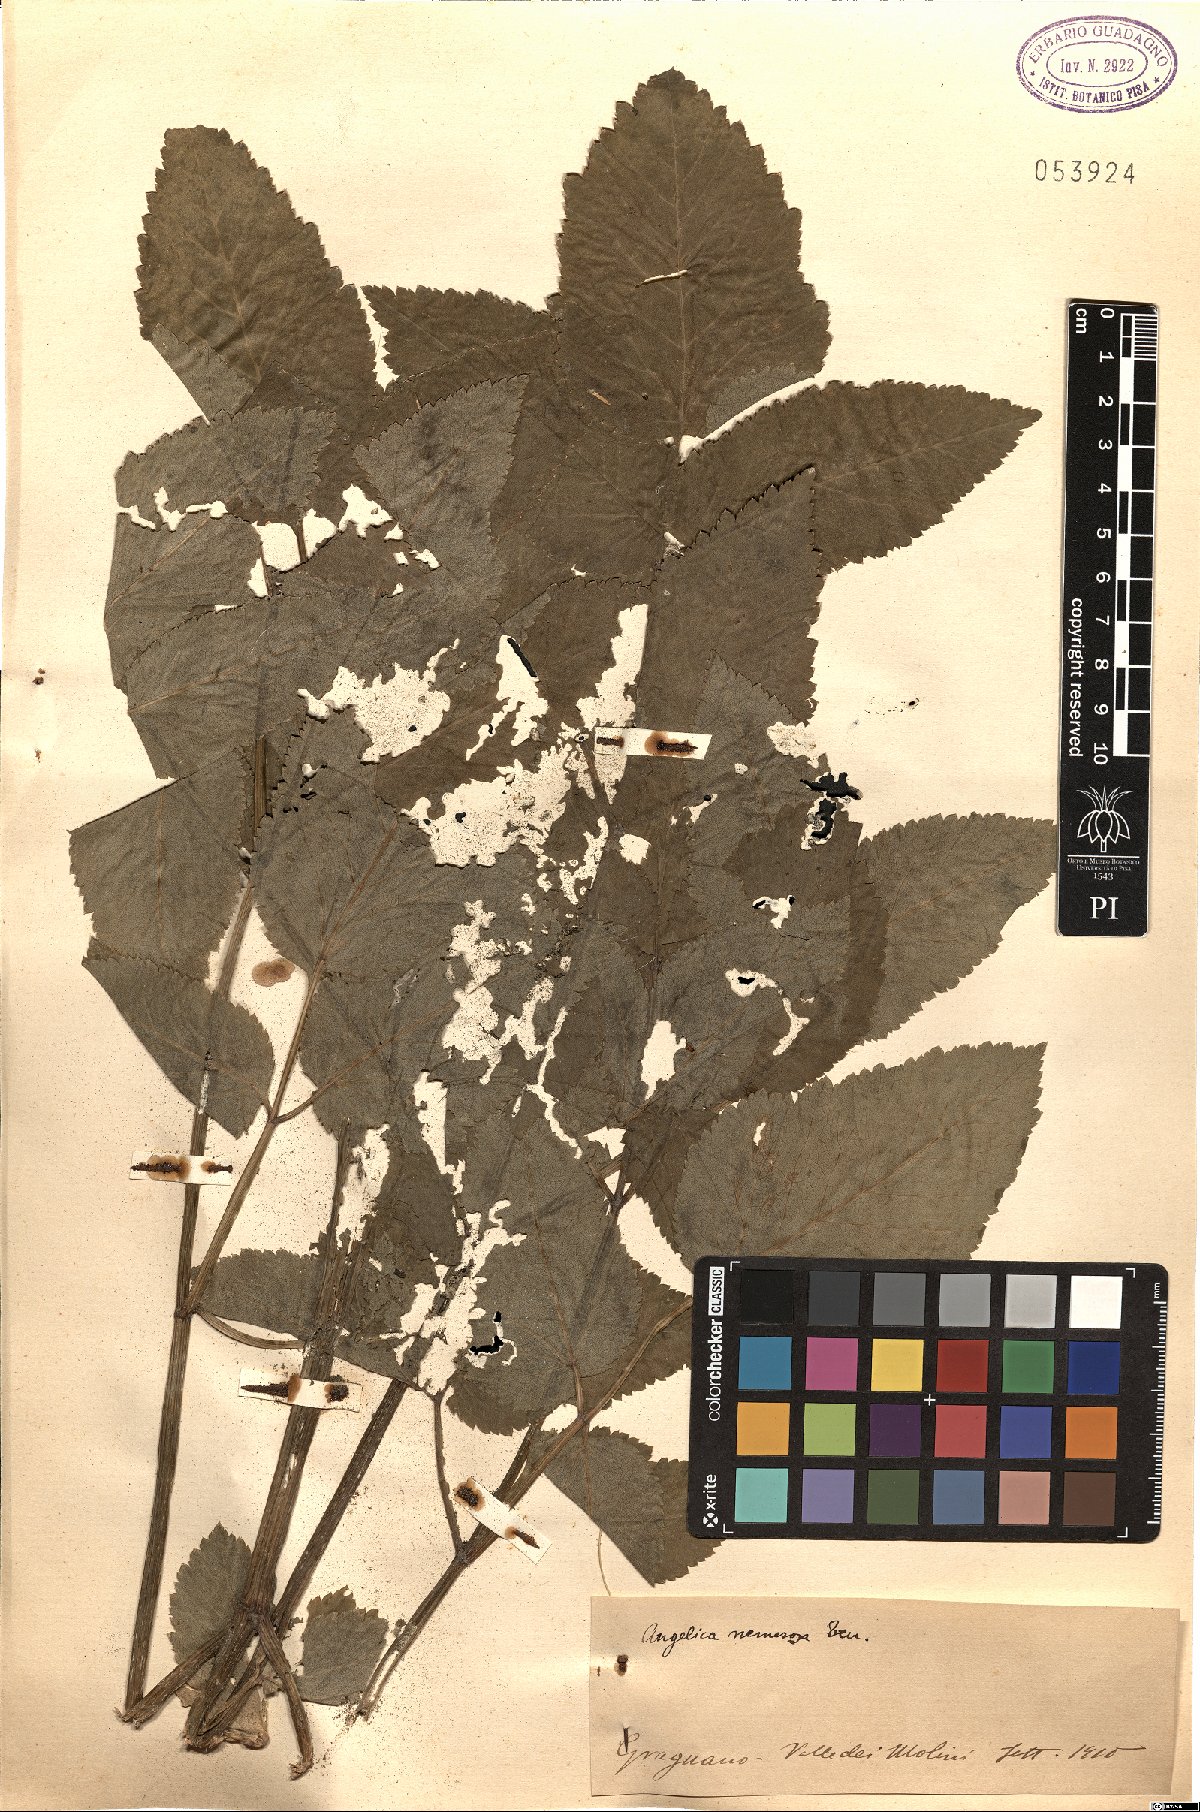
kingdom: Plantae
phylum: Tracheophyta
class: Magnoliopsida
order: Apiales
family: Apiaceae
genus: Angelica
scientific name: Angelica sylvestris
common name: Wild angelica
